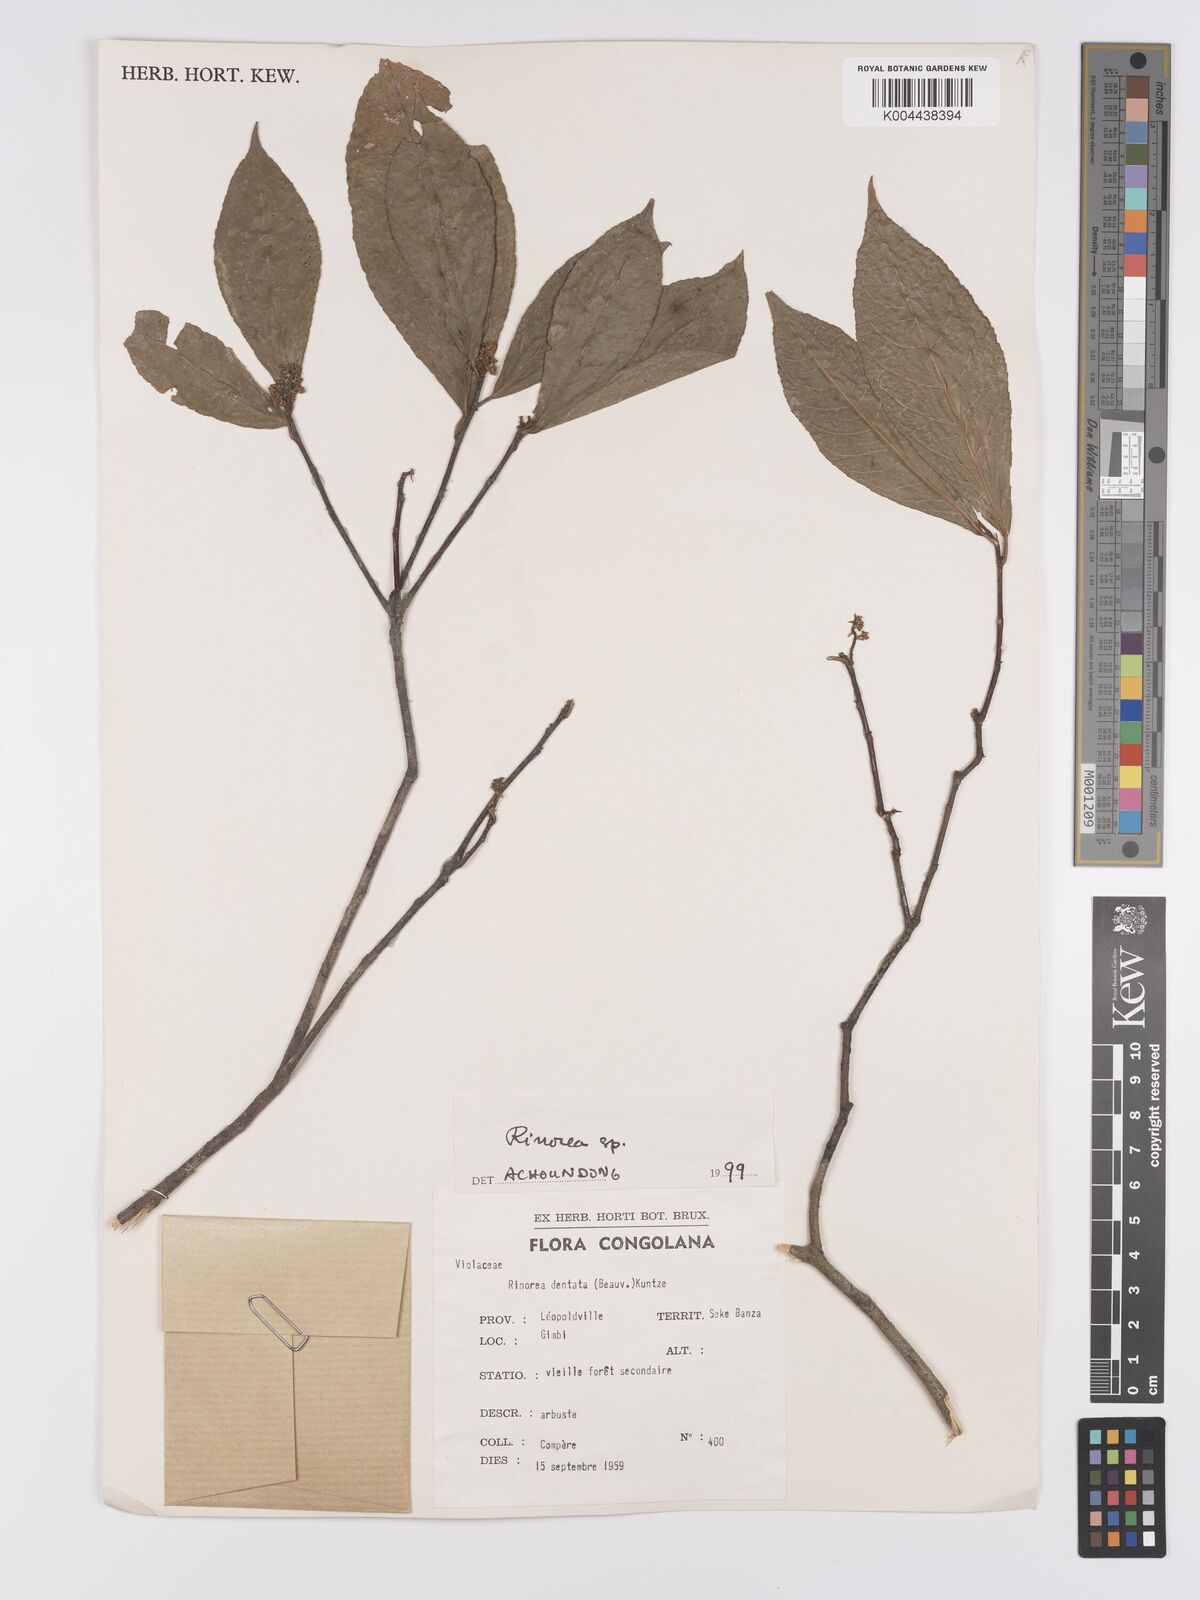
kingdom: Plantae
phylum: Tracheophyta
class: Magnoliopsida
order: Malpighiales
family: Violaceae
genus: Rinorea
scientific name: Rinorea
